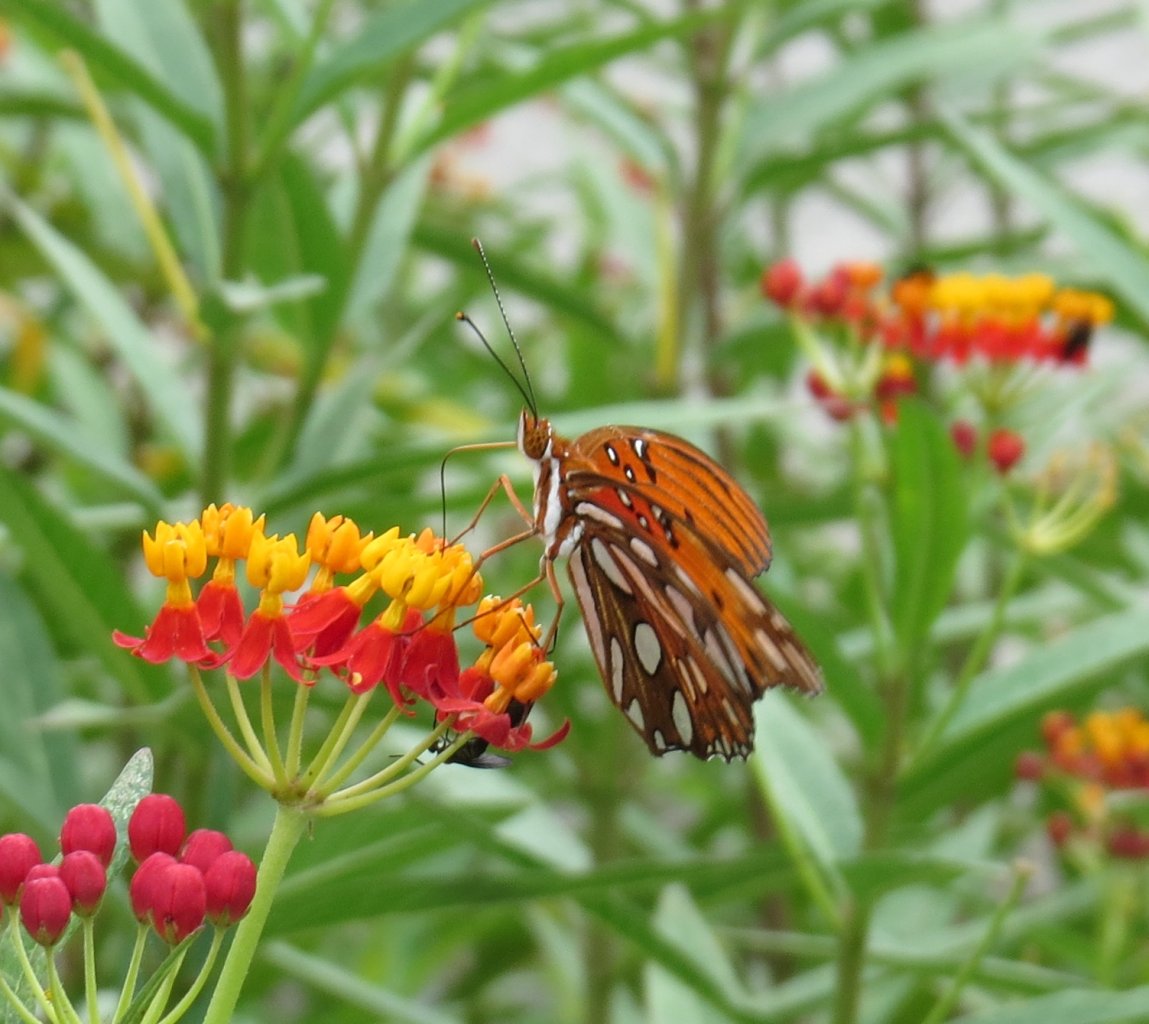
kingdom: Animalia
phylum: Arthropoda
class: Insecta
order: Lepidoptera
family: Nymphalidae
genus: Dione
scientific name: Dione vanillae
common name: Gulf Fritillary
